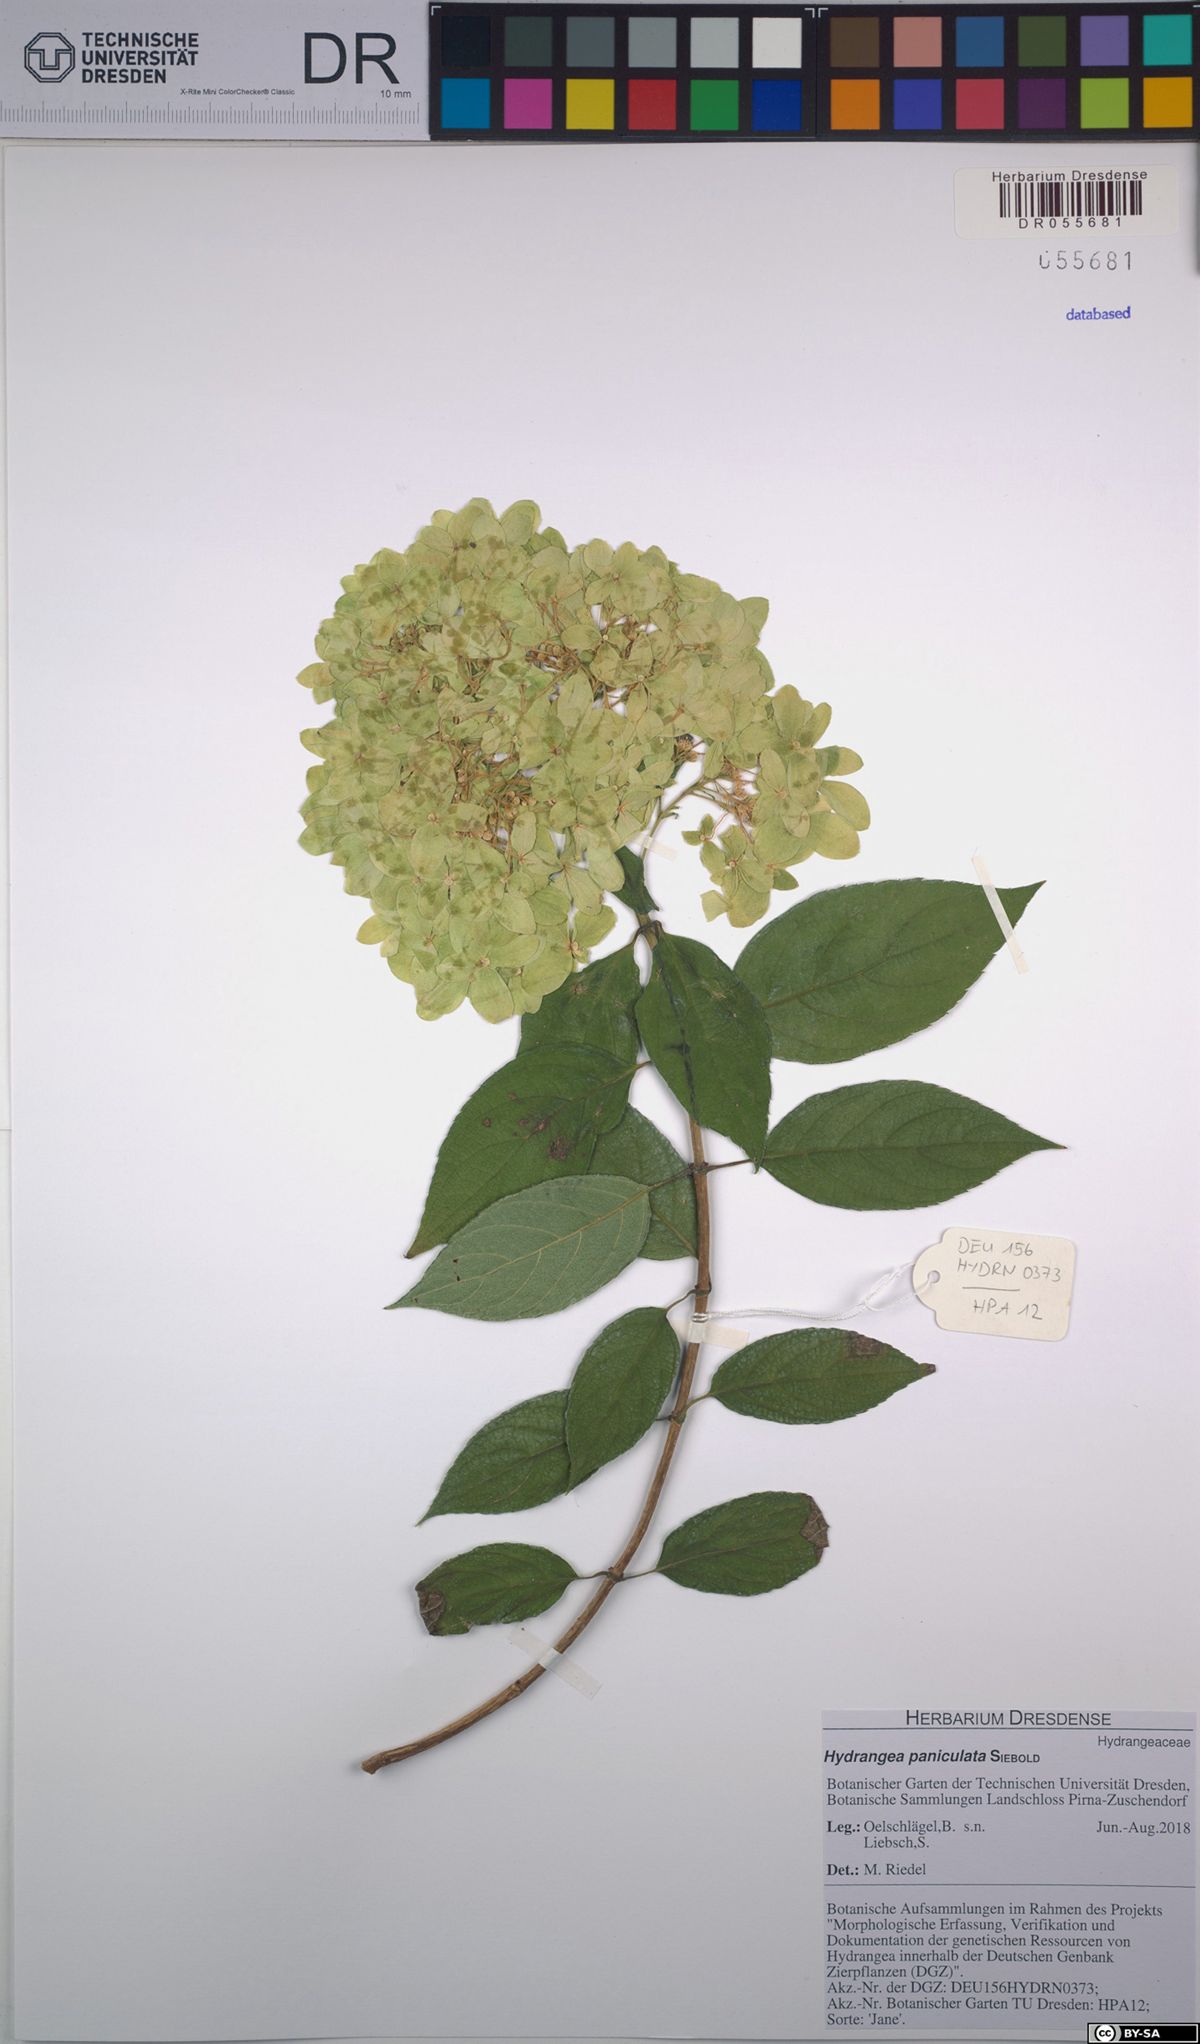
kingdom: Plantae
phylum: Tracheophyta
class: Magnoliopsida
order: Cornales
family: Hydrangeaceae
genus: Hydrangea
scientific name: Hydrangea paniculata
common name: Panicled hydrangea
